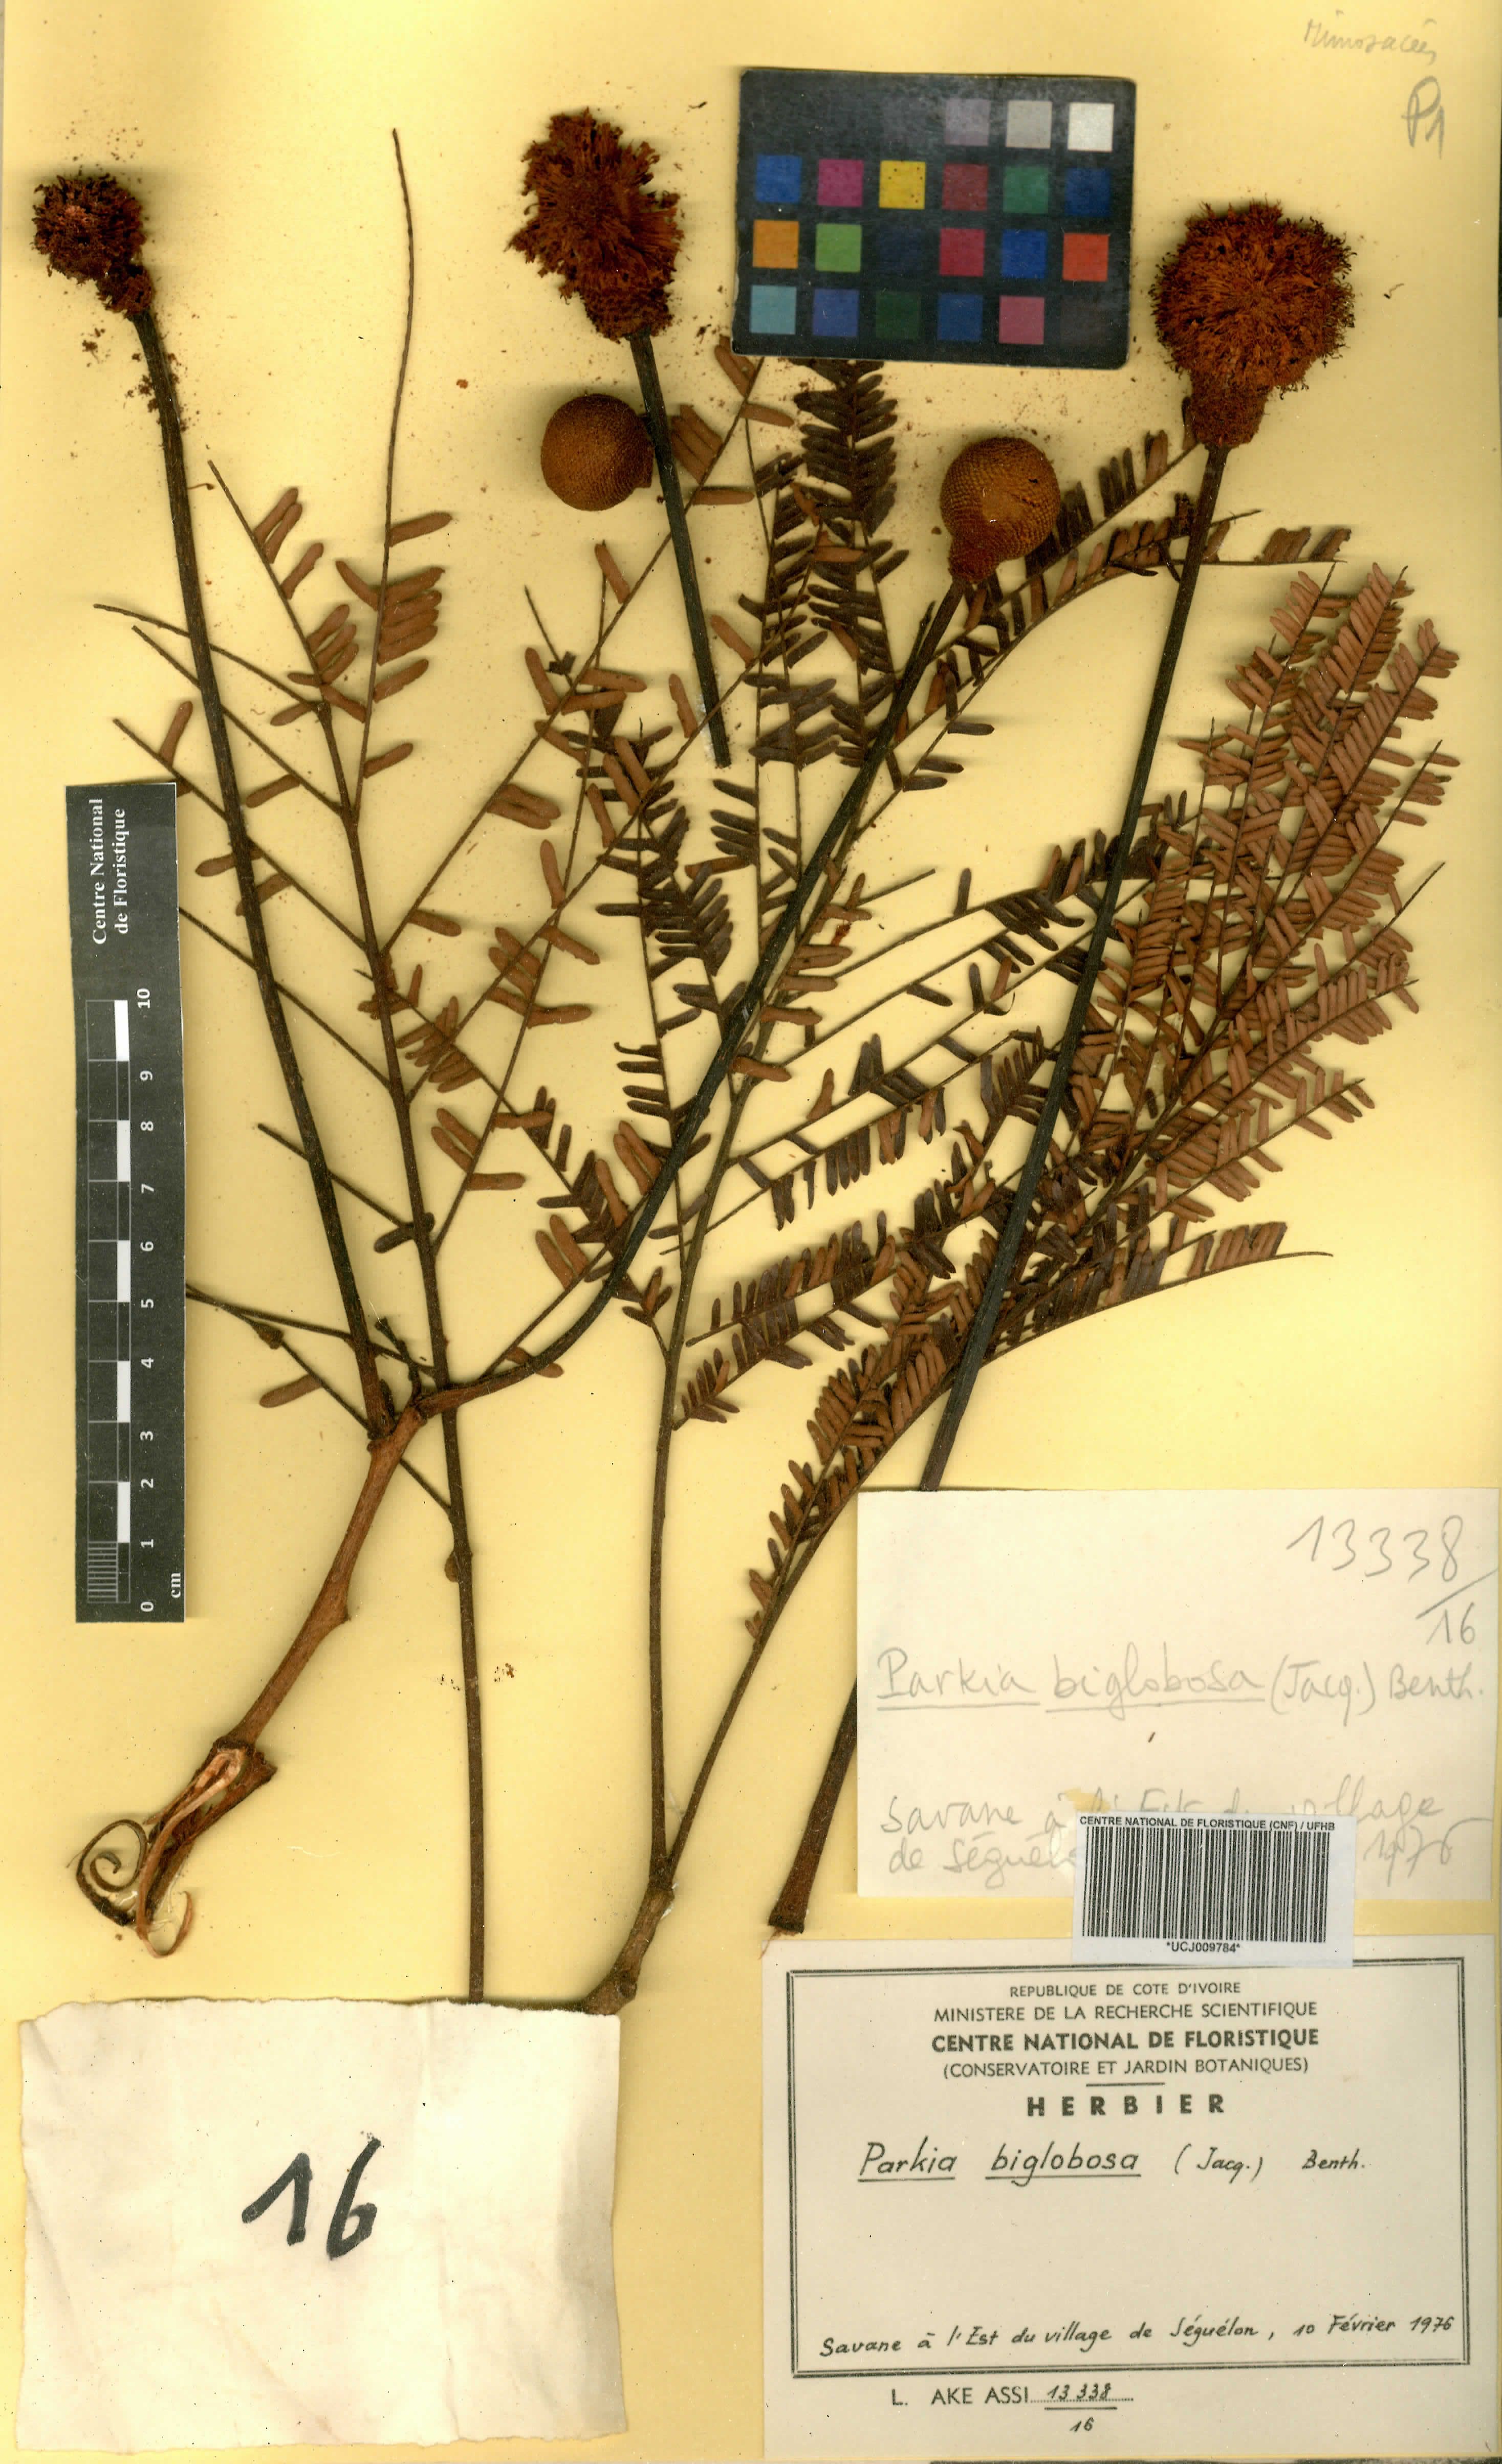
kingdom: Plantae
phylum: Tracheophyta
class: Magnoliopsida
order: Fabales
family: Fabaceae
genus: Parkia
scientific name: Parkia timoriana
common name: Legume
